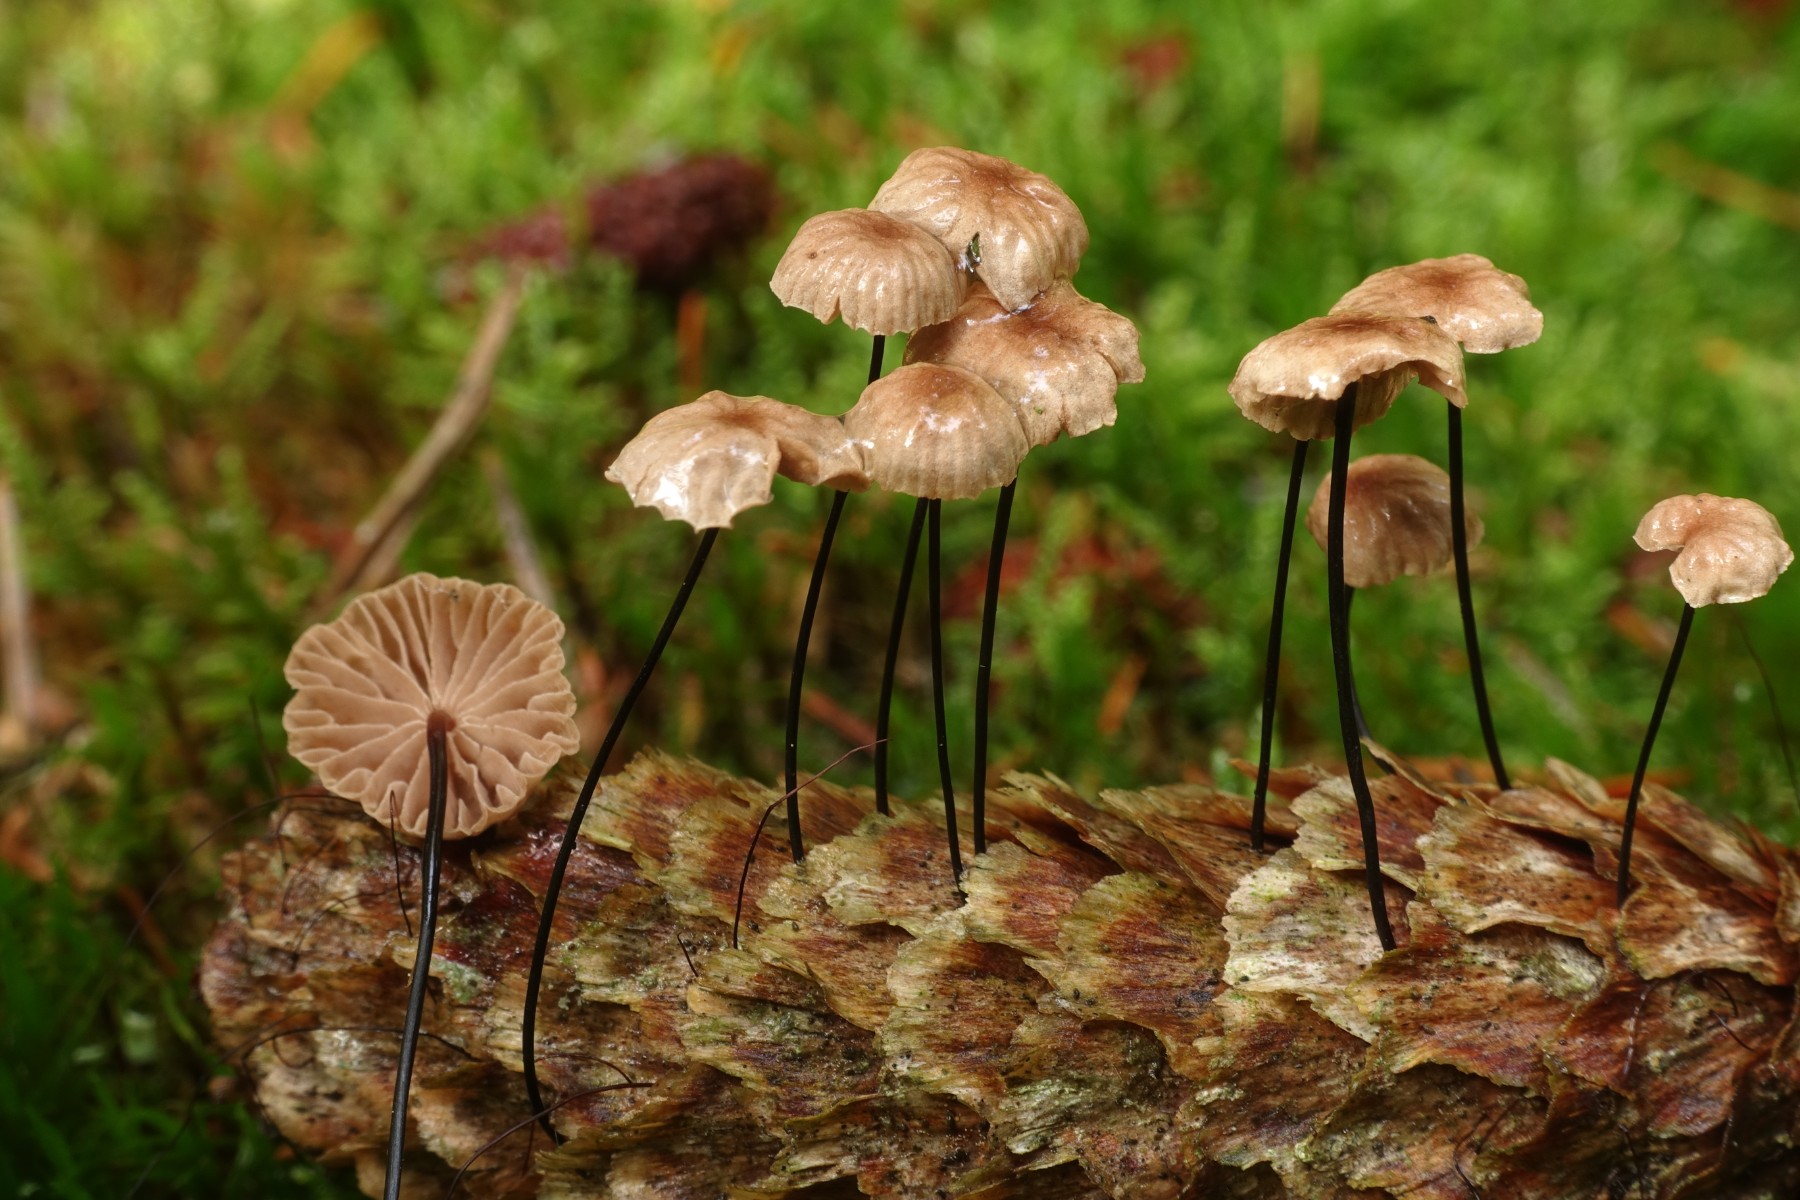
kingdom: Fungi
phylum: Basidiomycota
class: Agaricomycetes
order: Agaricales
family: Omphalotaceae
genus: Gymnopus
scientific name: Gymnopus androsaceus
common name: trådstokket fladhat
